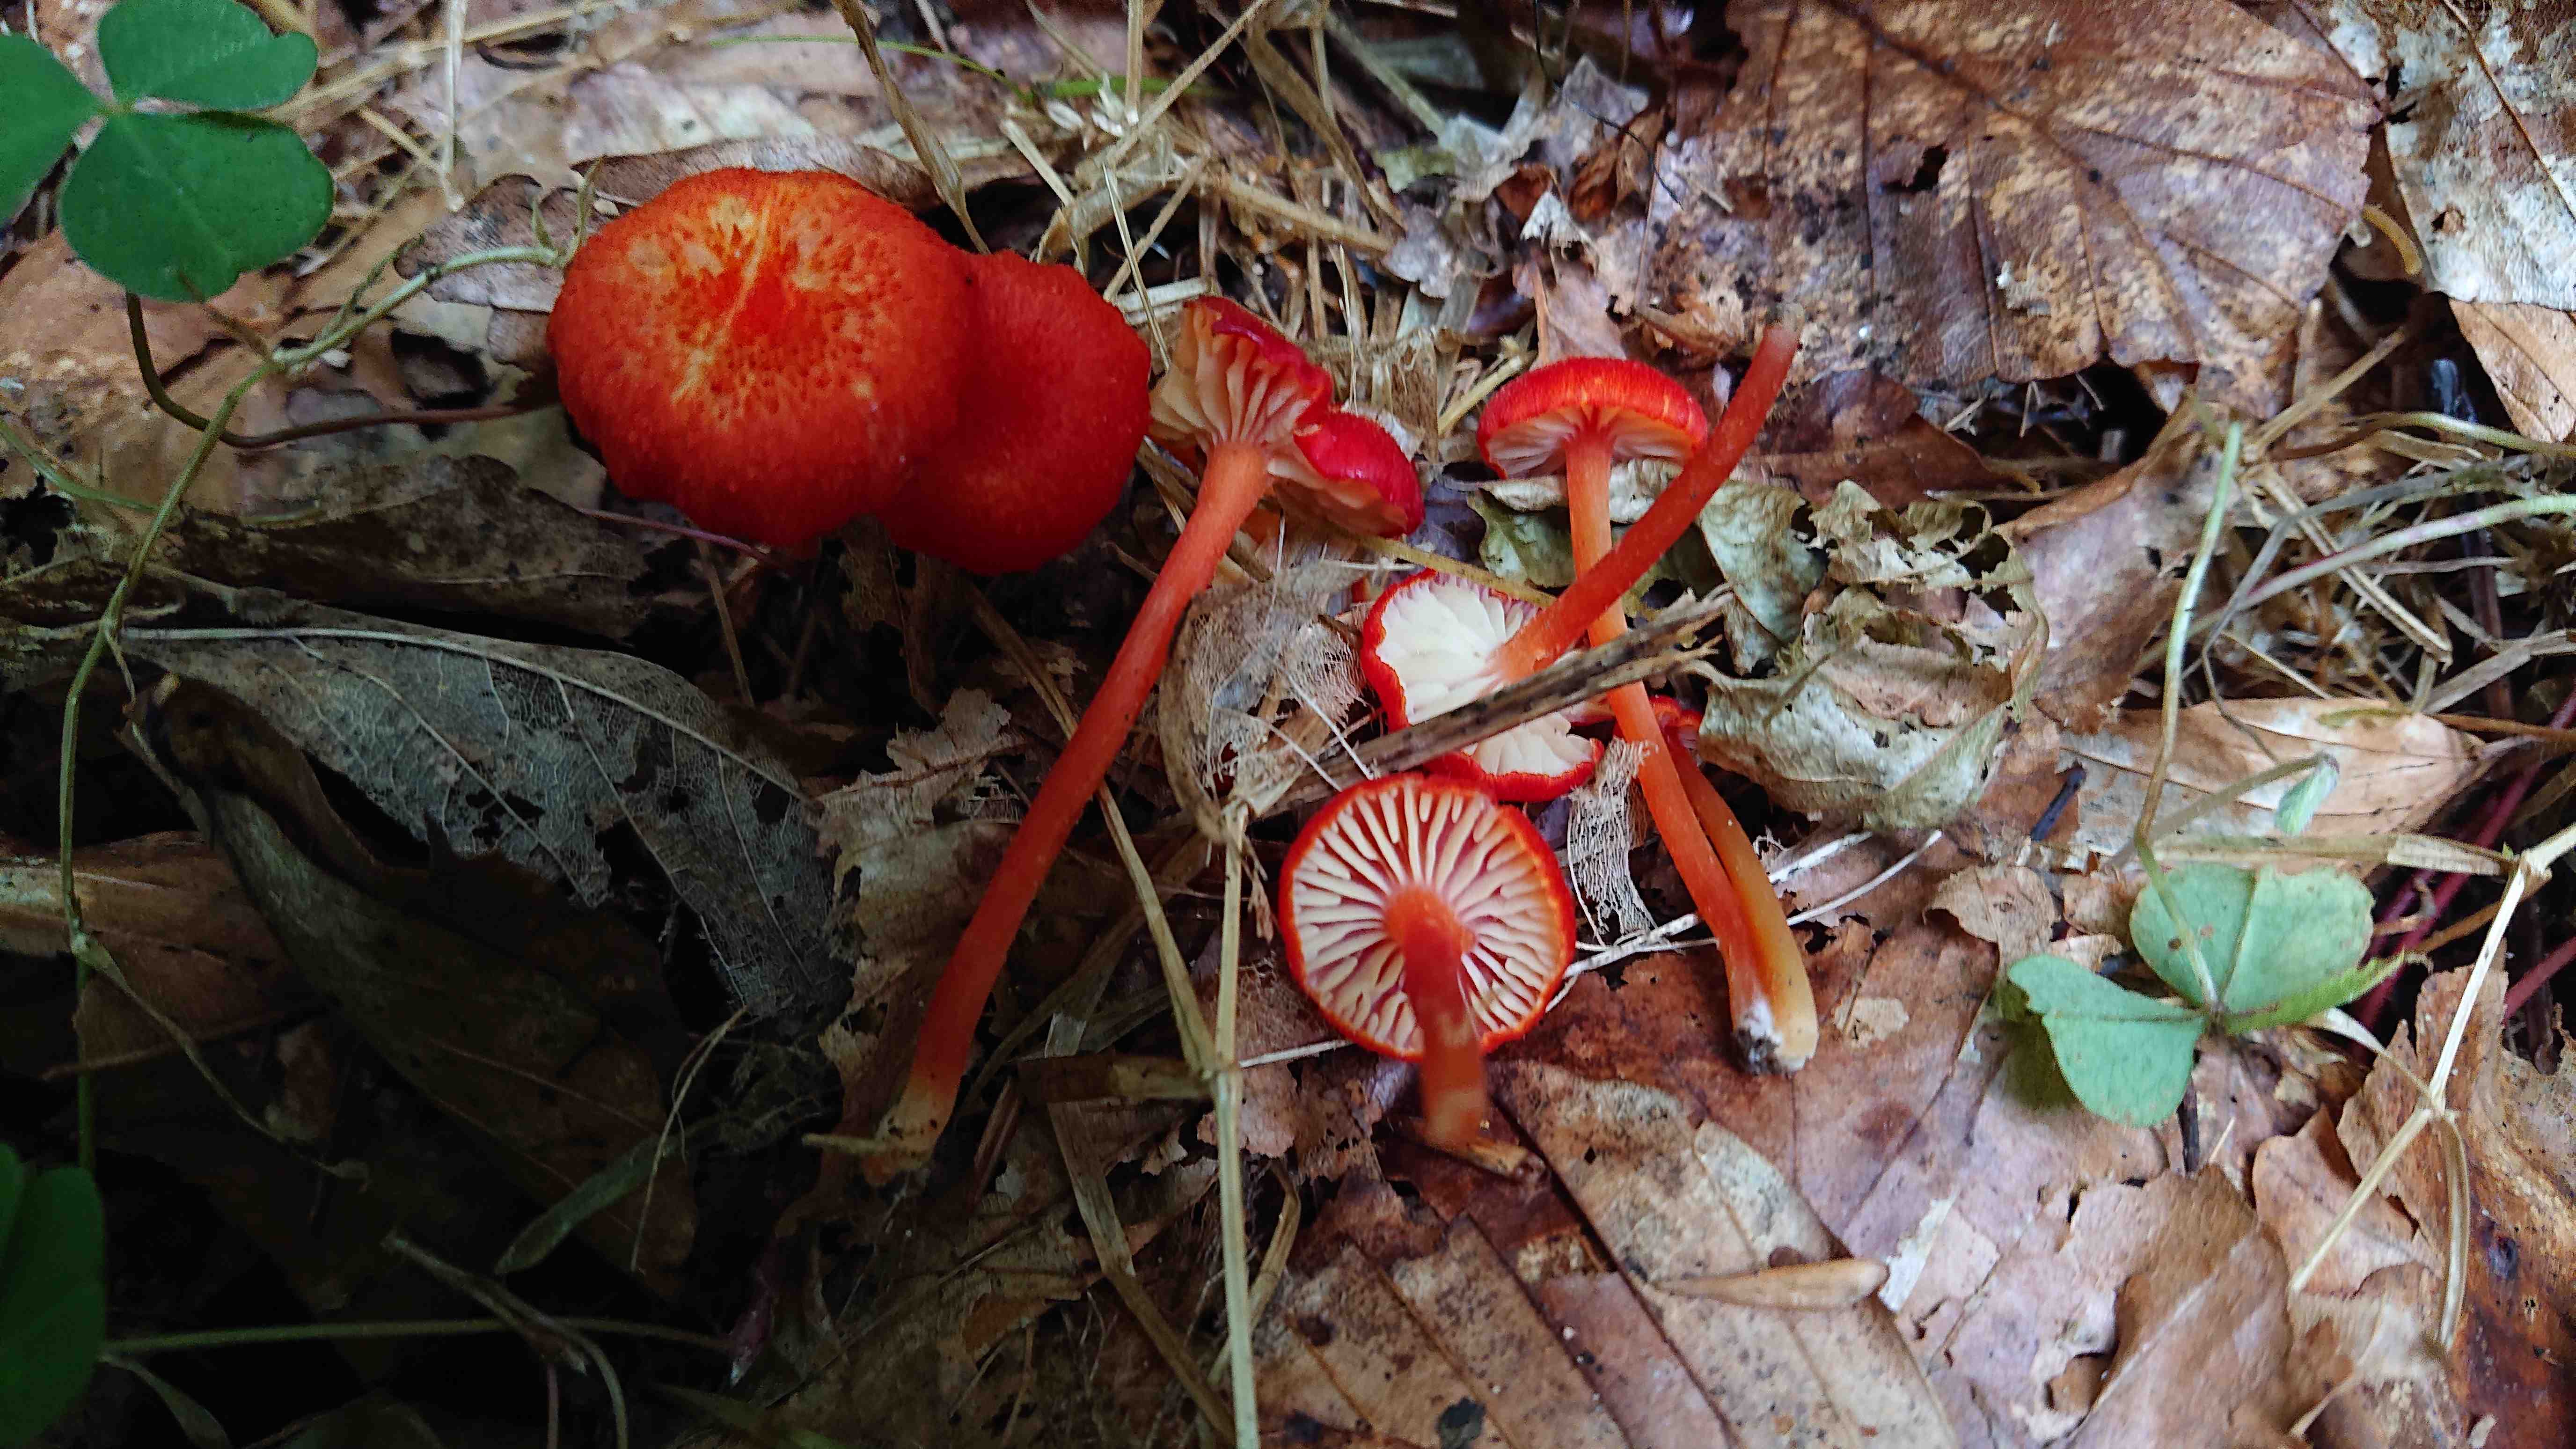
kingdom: Fungi
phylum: Basidiomycota
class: Agaricomycetes
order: Agaricales
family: Hygrophoraceae
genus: Hygrocybe
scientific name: Hygrocybe helobia
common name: hvidløgs-vokshat
